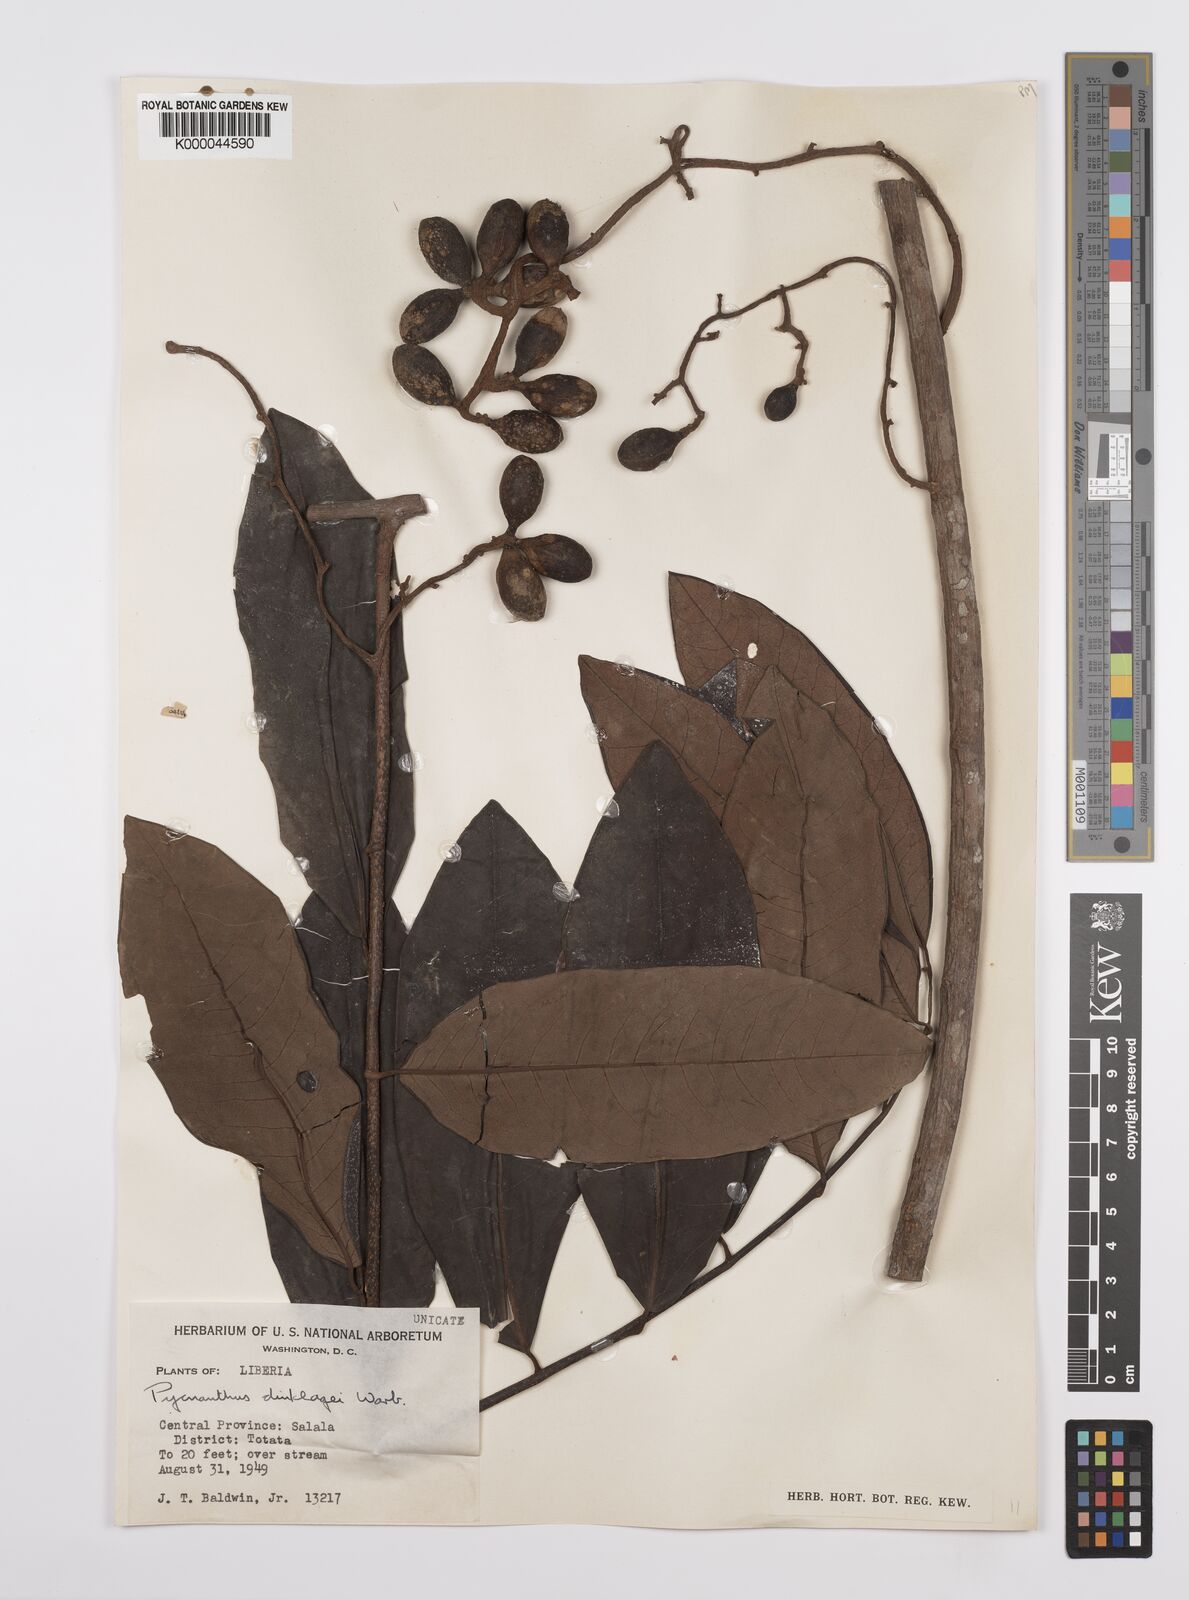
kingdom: Plantae
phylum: Tracheophyta
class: Magnoliopsida
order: Magnoliales
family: Myristicaceae
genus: Pycnanthus
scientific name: Pycnanthus dinklagei
